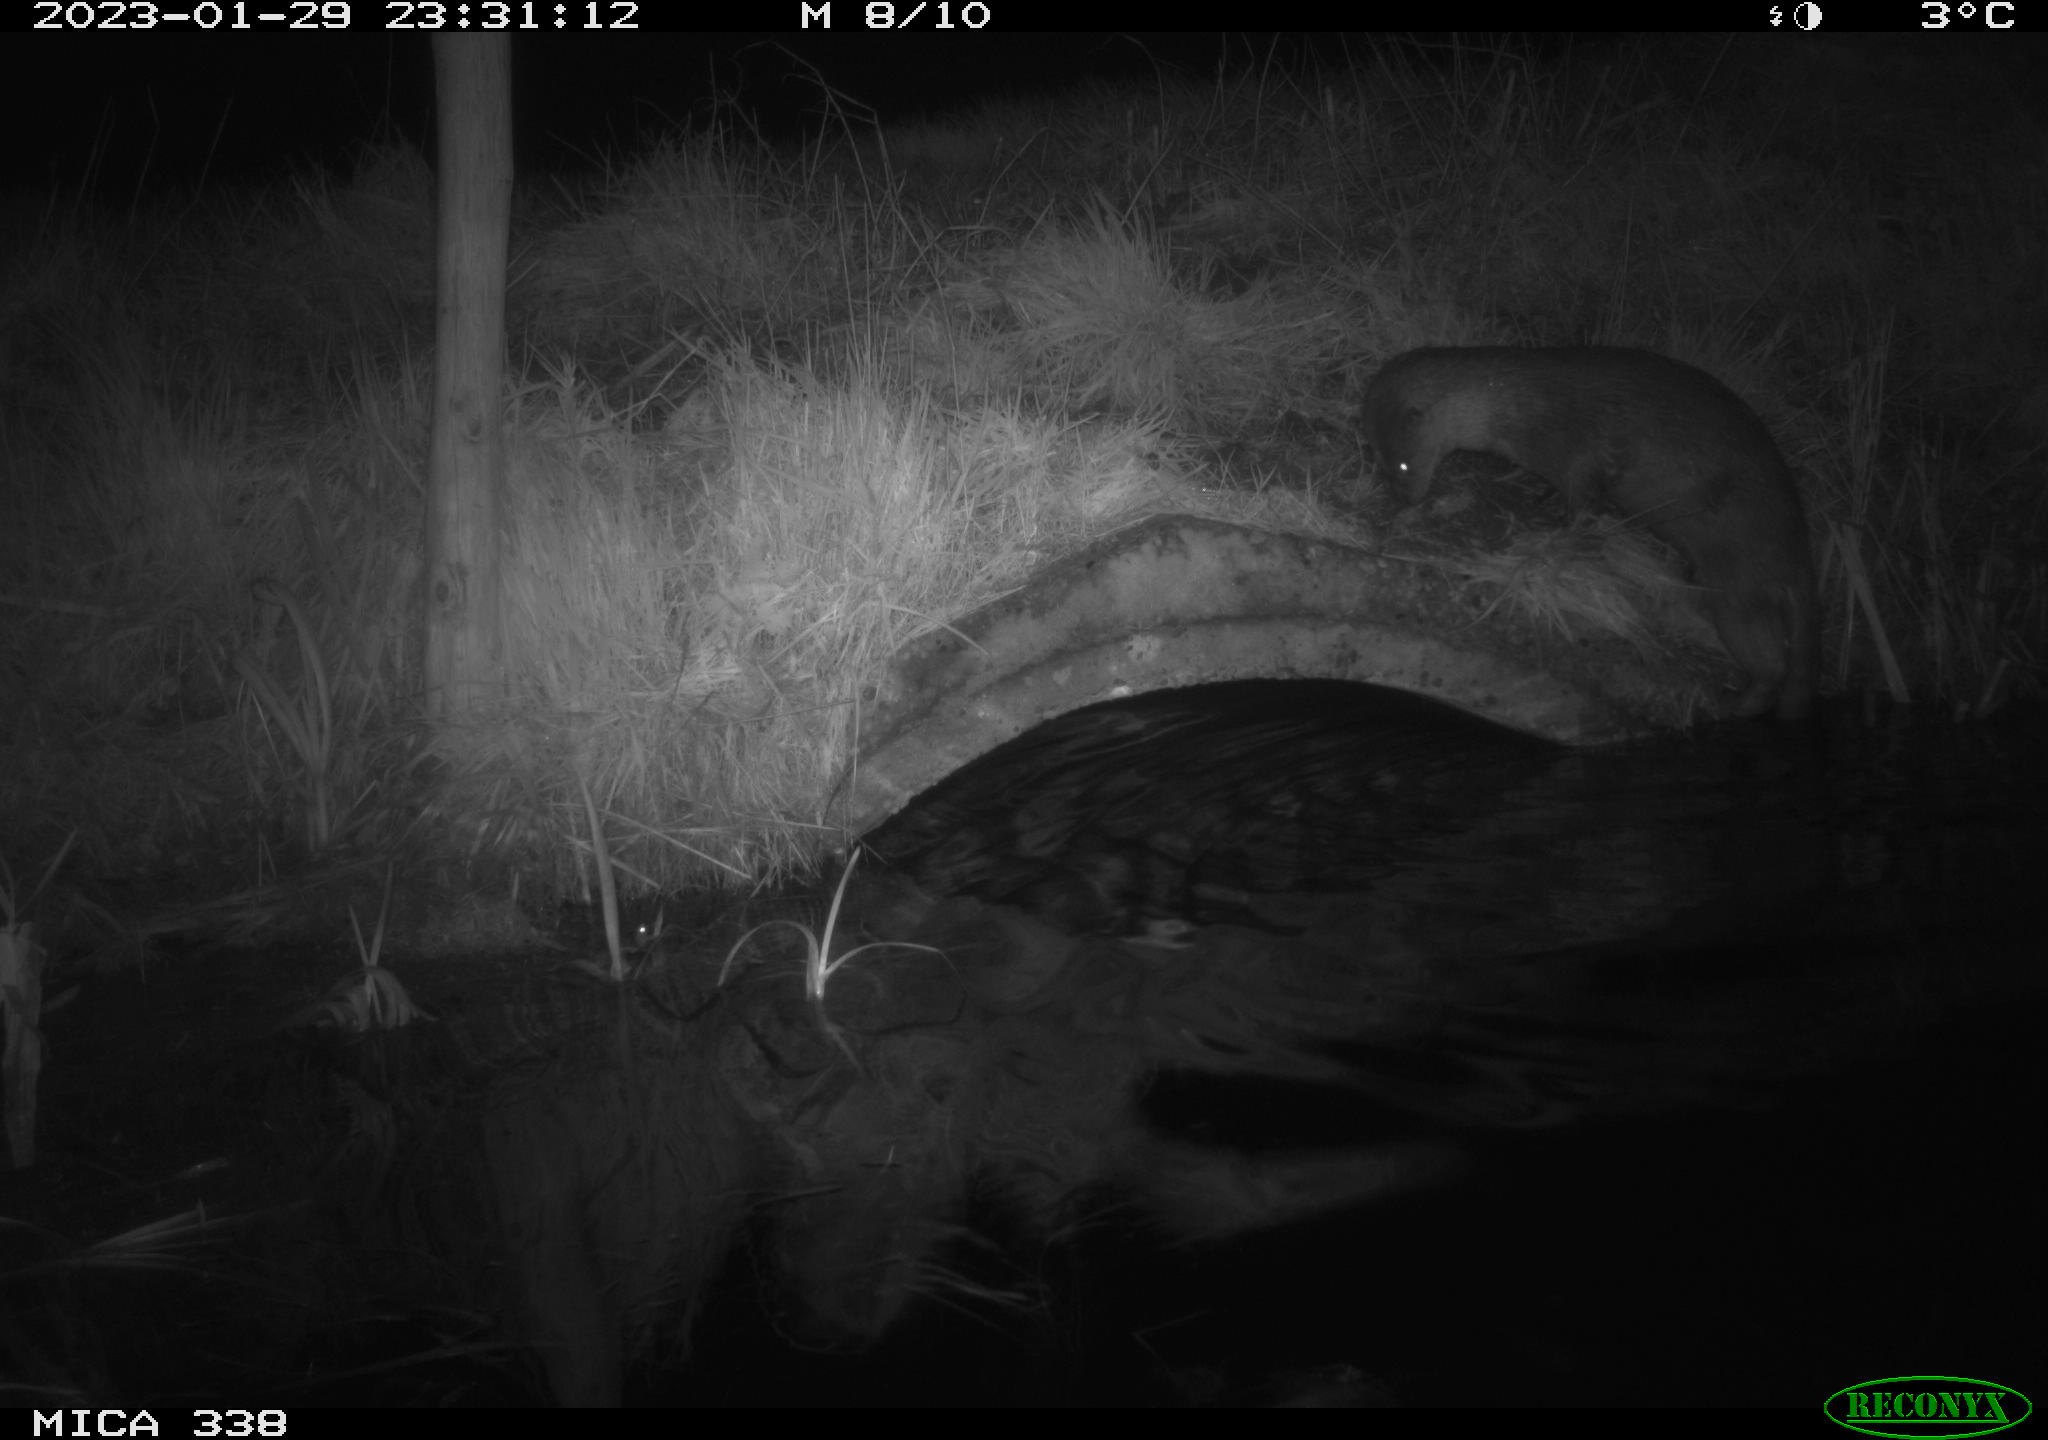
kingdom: Animalia
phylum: Chordata
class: Mammalia
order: Carnivora
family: Mustelidae
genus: Lutra
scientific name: Lutra lutra
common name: European otter
